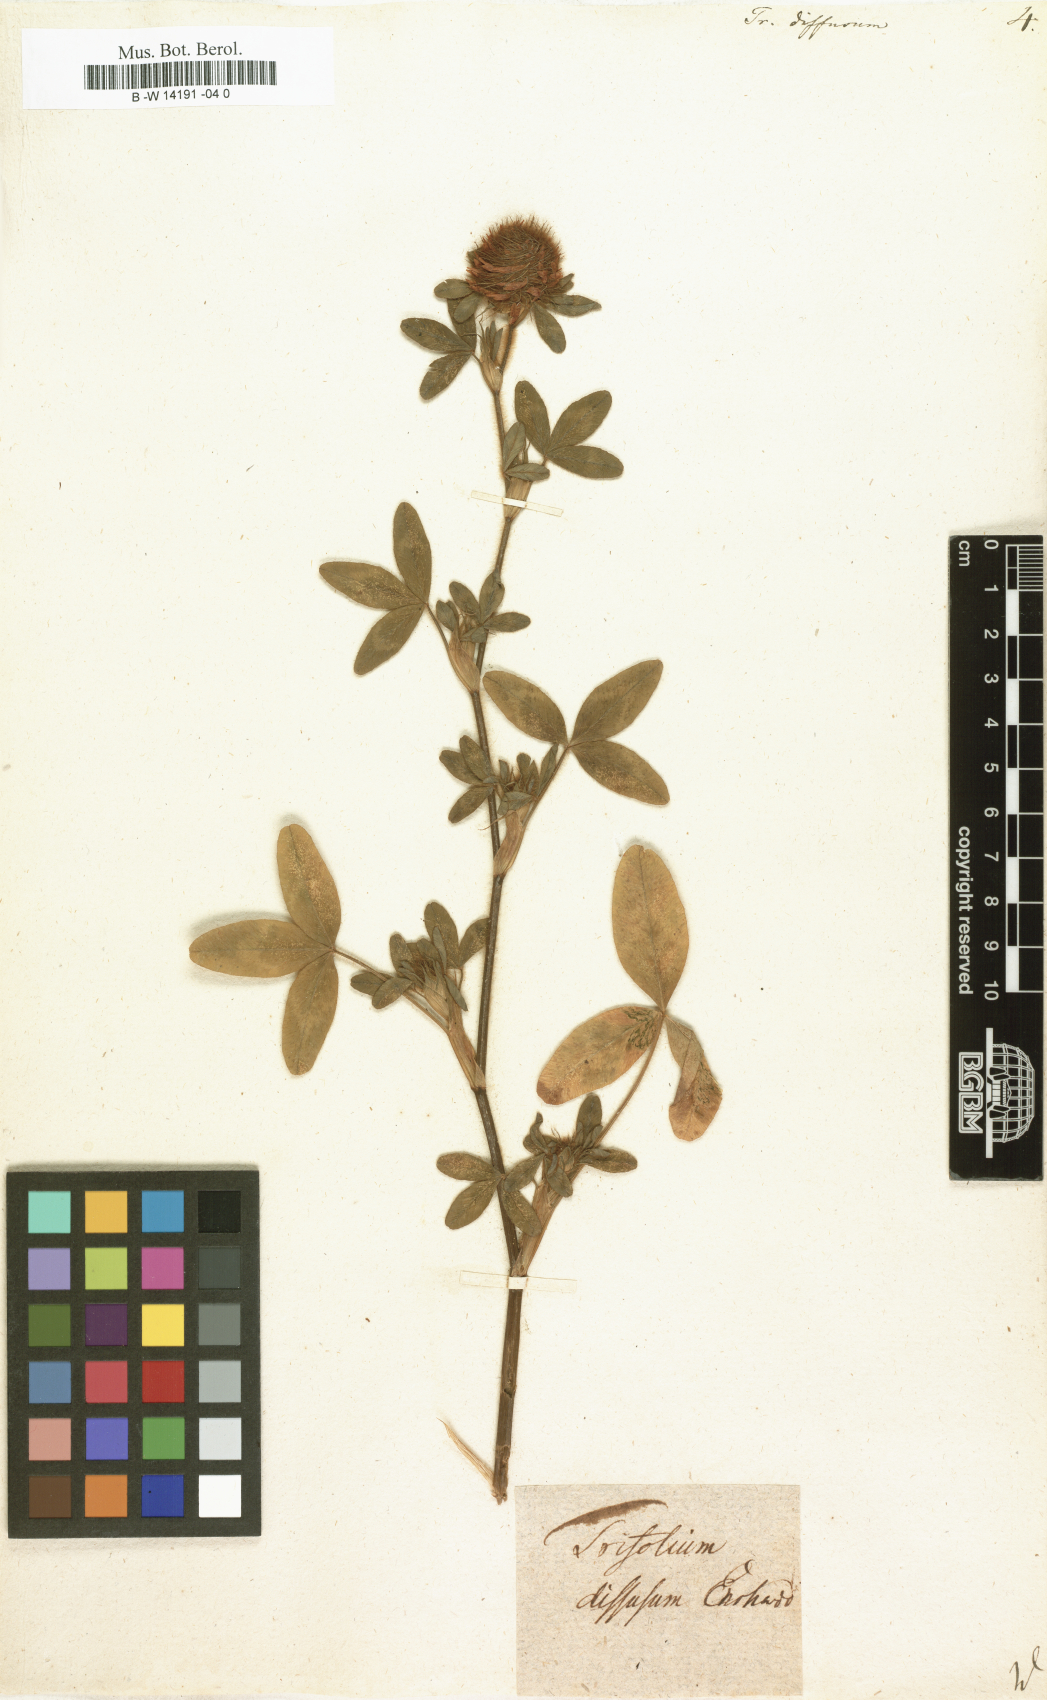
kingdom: Plantae
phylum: Tracheophyta
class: Magnoliopsida
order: Fabales
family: Fabaceae
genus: Trifolium
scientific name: Trifolium diffusum
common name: Diffuse clover
